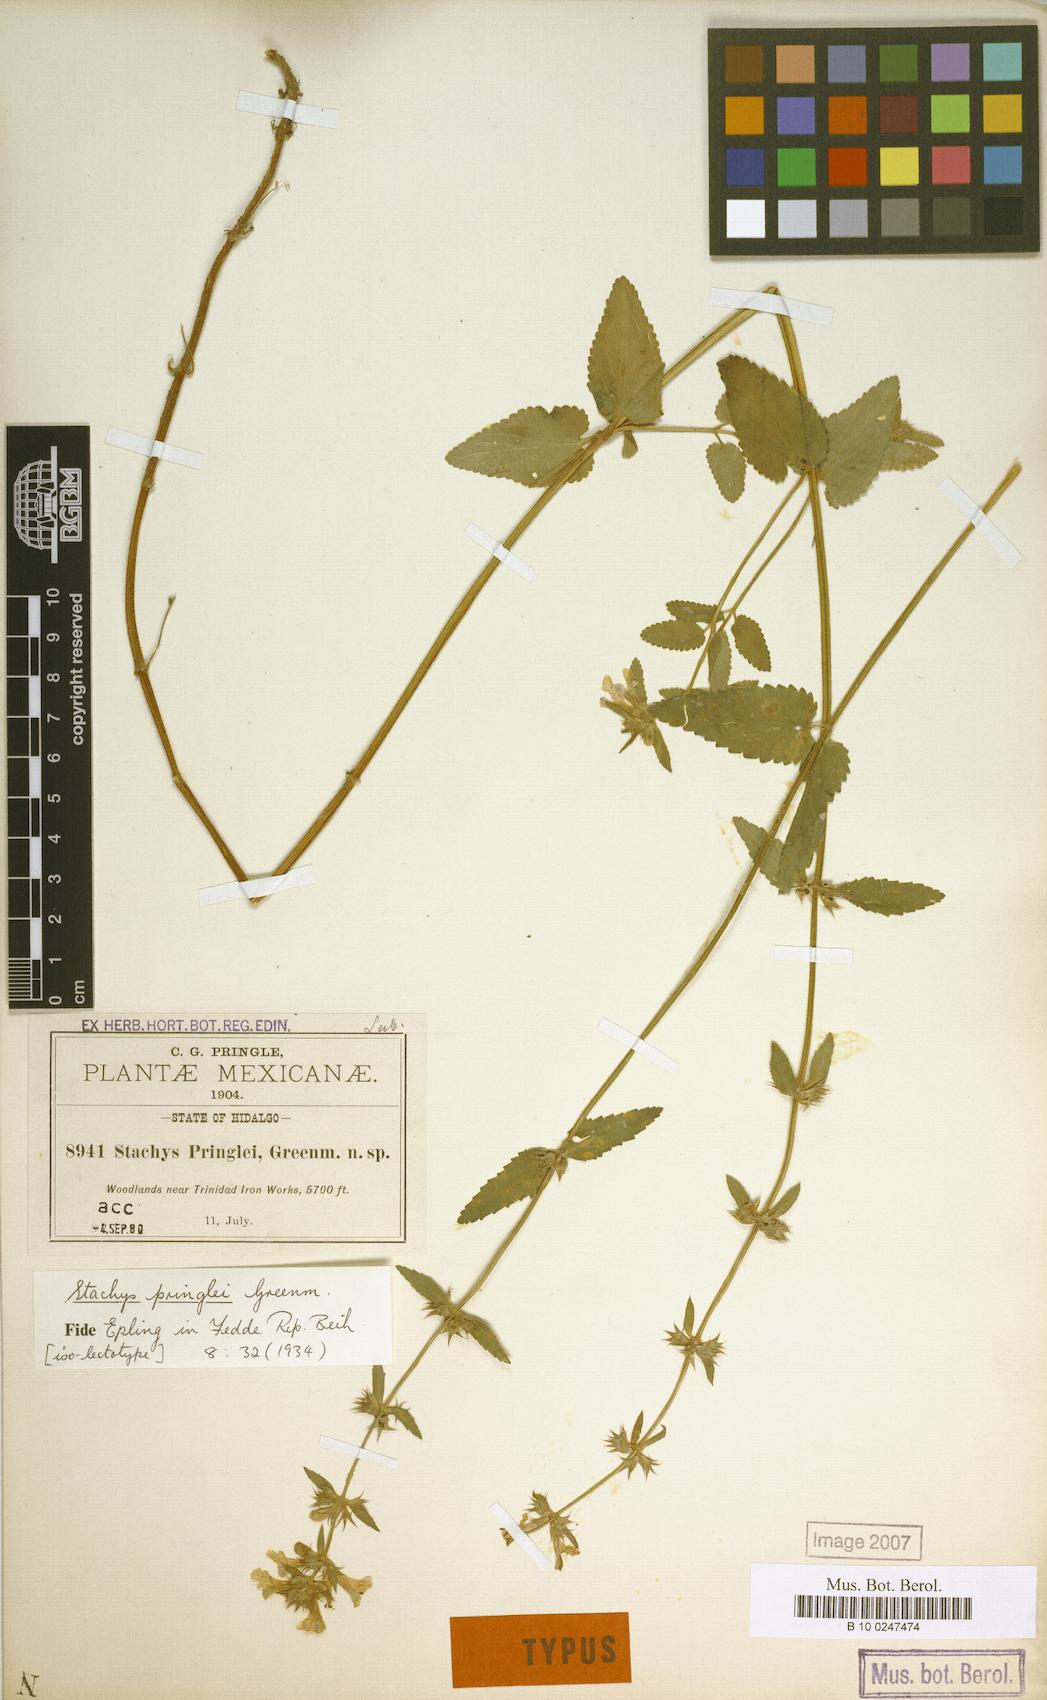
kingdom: Plantae
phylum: Tracheophyta
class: Magnoliopsida
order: Lamiales
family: Lamiaceae
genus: Stachys
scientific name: Stachys pringlei
